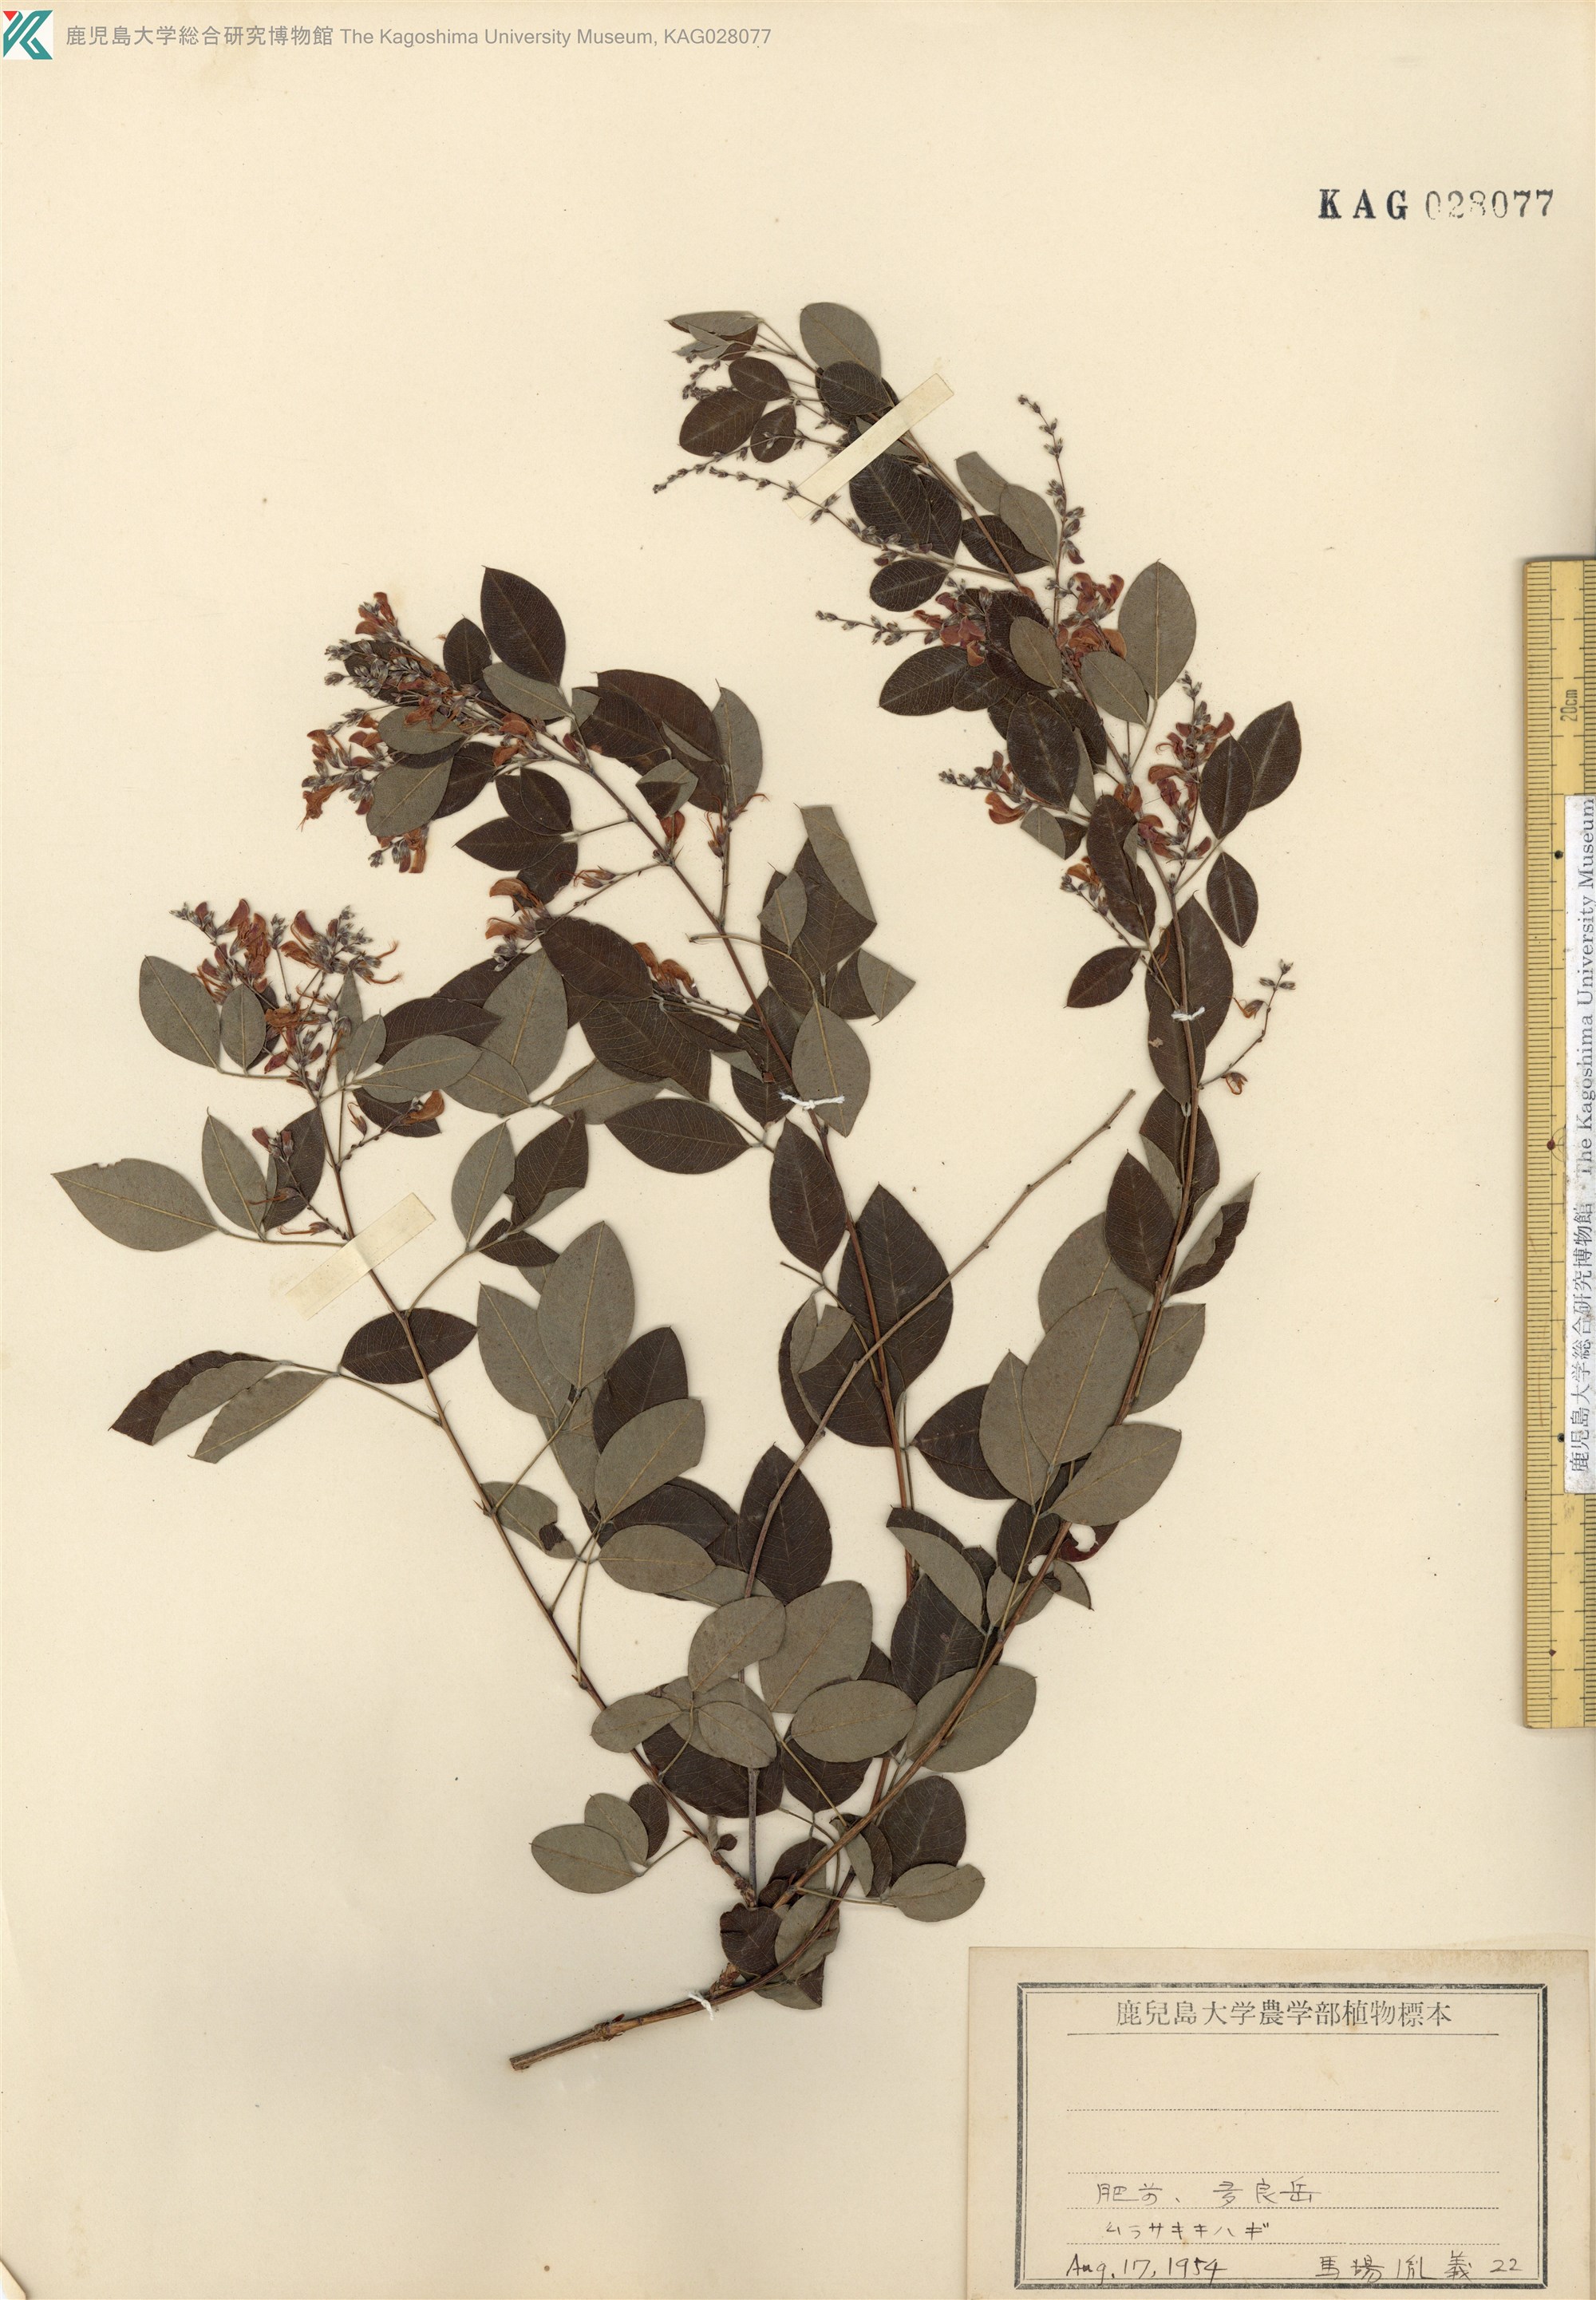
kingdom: Plantae
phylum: Tracheophyta
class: Magnoliopsida
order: Fabales
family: Fabaceae
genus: Lespedeza
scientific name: Lespedeza buergeri
